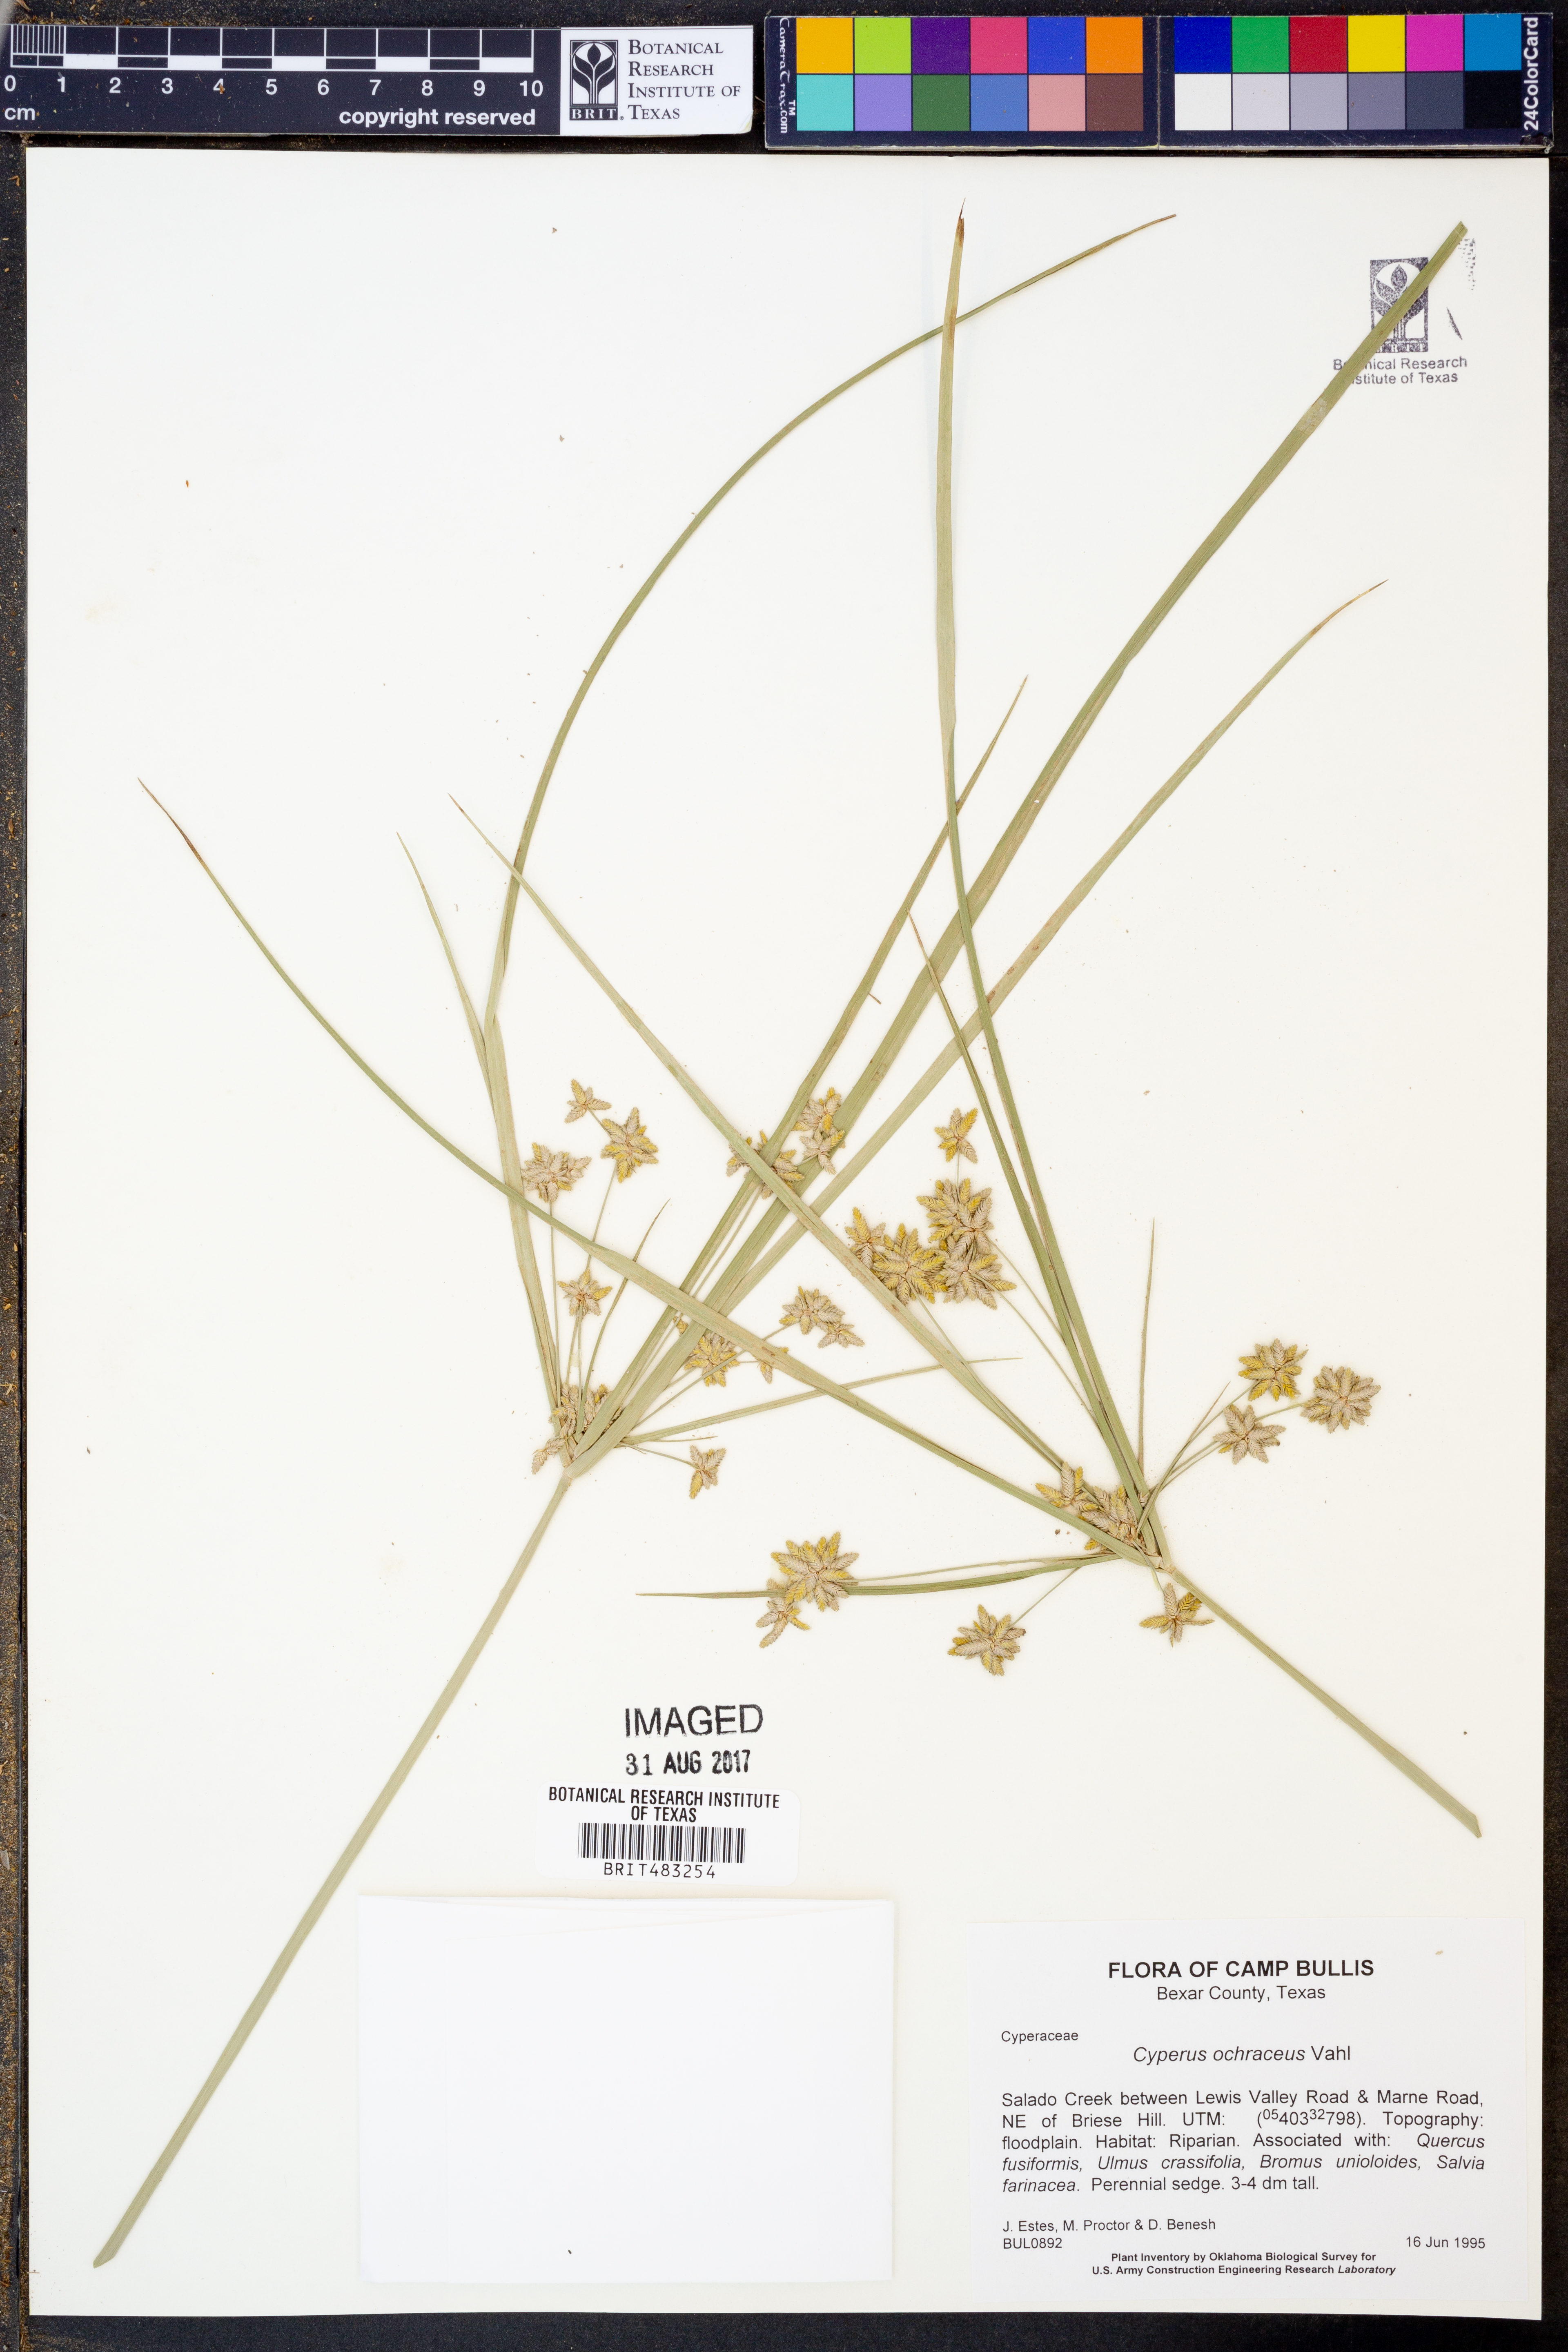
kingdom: Plantae
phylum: Tracheophyta
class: Liliopsida
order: Poales
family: Cyperaceae
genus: Cyperus
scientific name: Cyperus ochraceus
